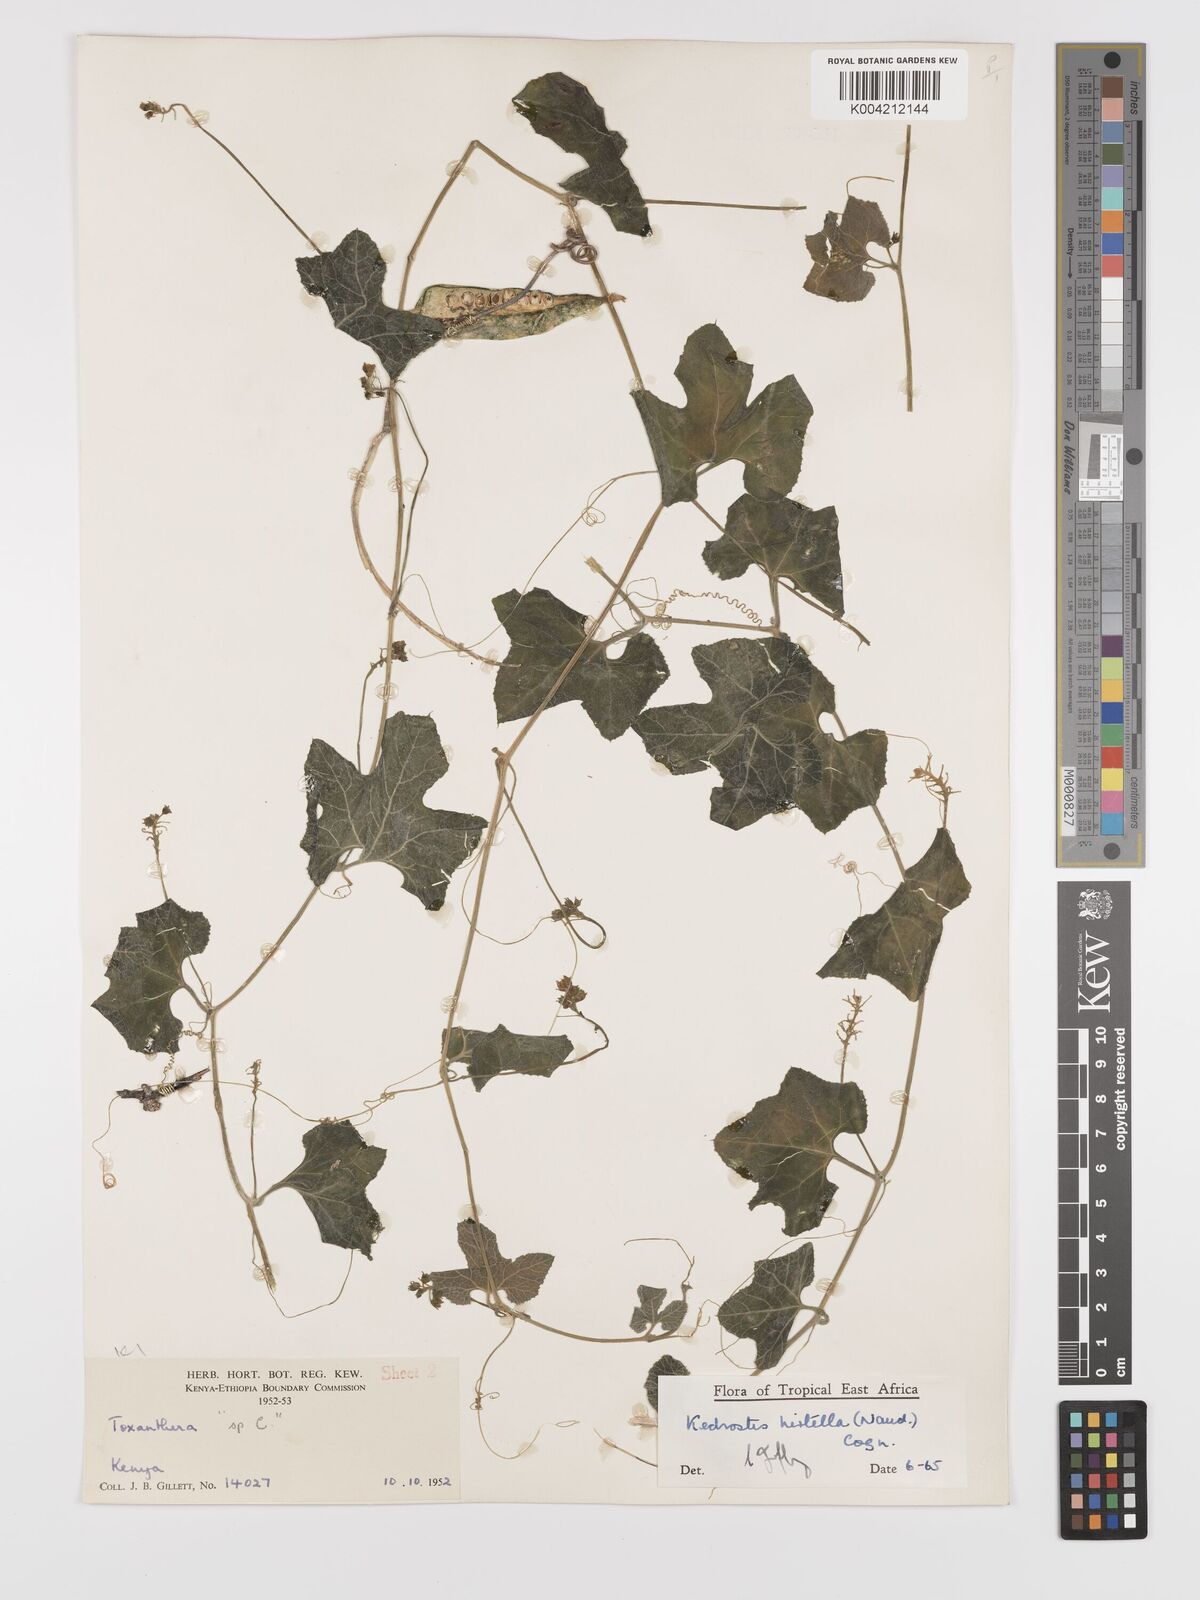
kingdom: Plantae
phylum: Tracheophyta
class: Magnoliopsida
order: Cucurbitales
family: Cucurbitaceae
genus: Kedrostis
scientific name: Kedrostis leloja
